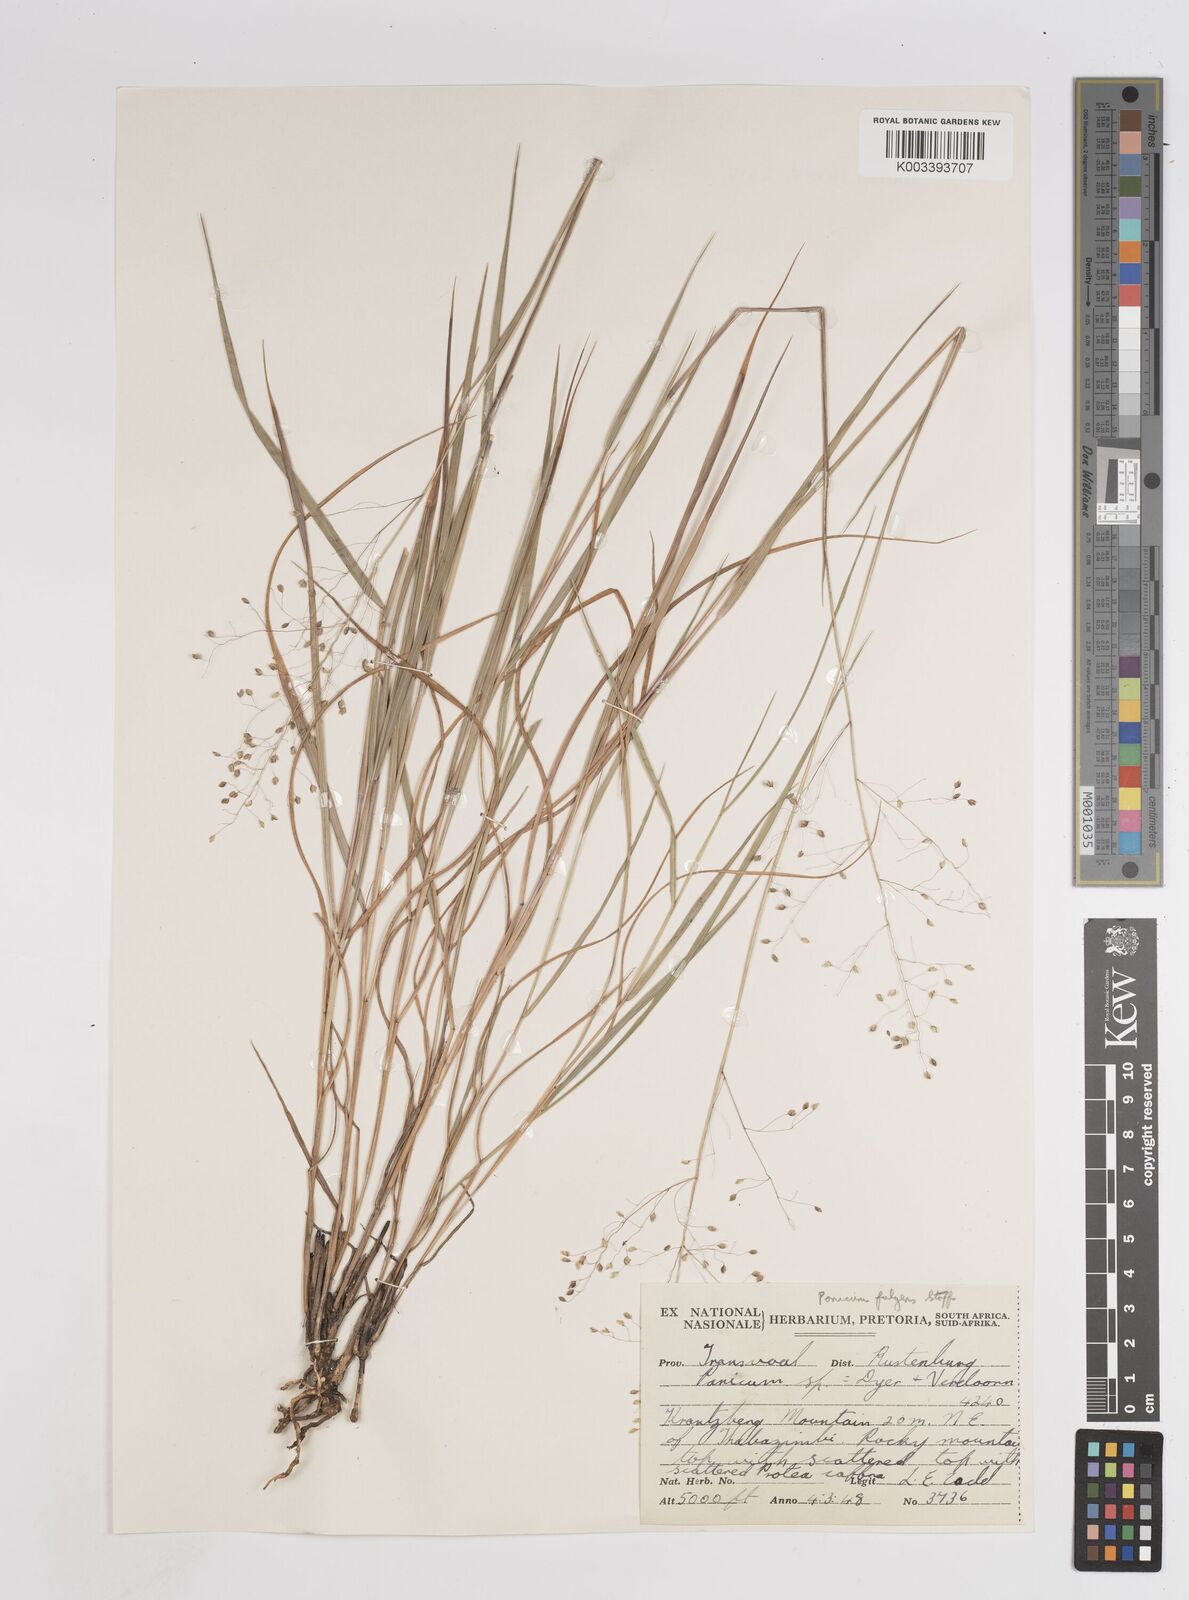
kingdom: Plantae
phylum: Tracheophyta
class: Liliopsida
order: Poales
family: Poaceae
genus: Trichanthecium
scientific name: Trichanthecium nervatum
